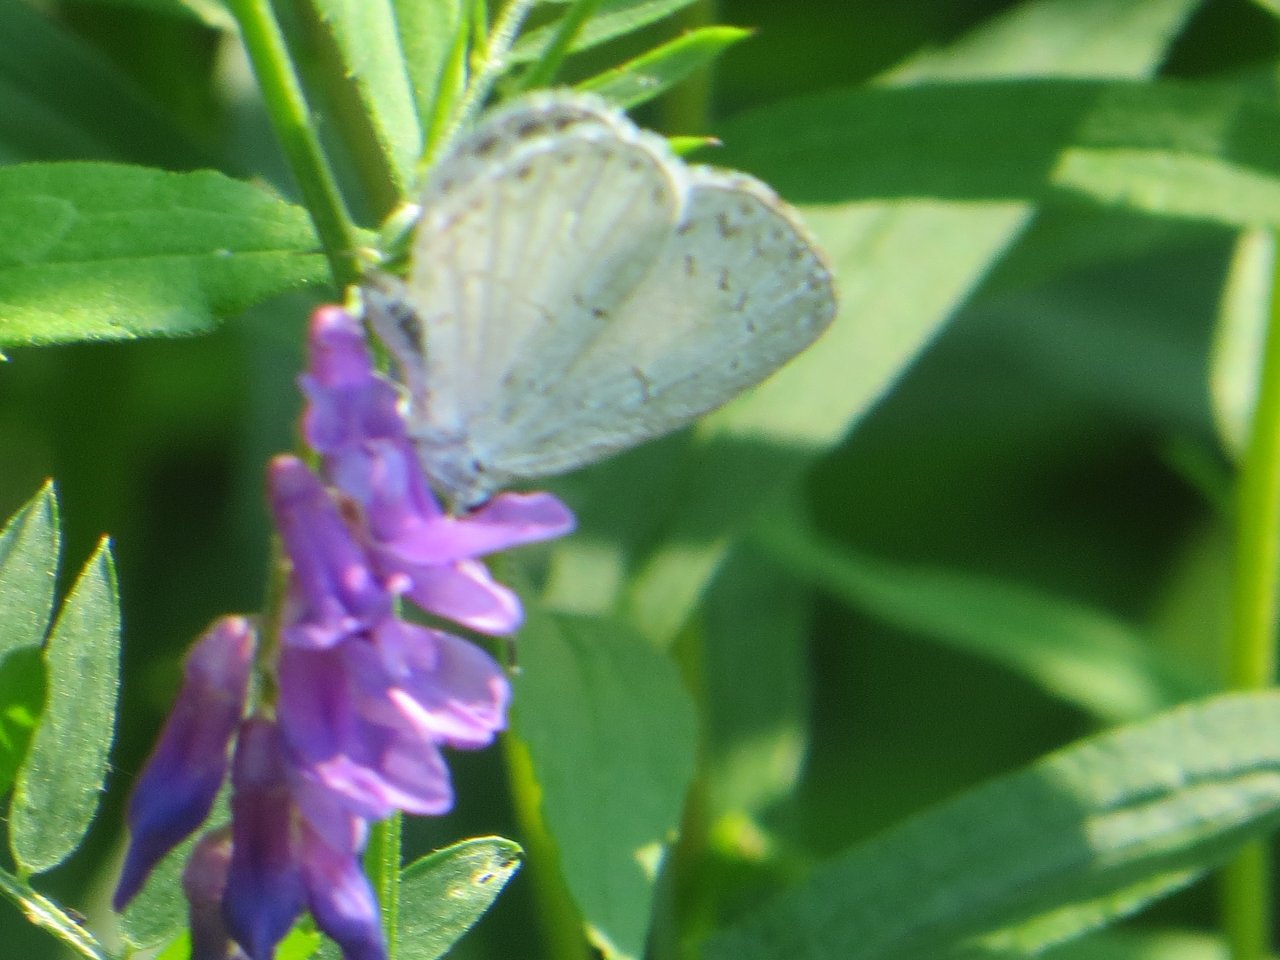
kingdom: Animalia
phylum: Arthropoda
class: Insecta
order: Lepidoptera
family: Lycaenidae
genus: Cyaniris
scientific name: Cyaniris neglecta
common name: Summer Azure
